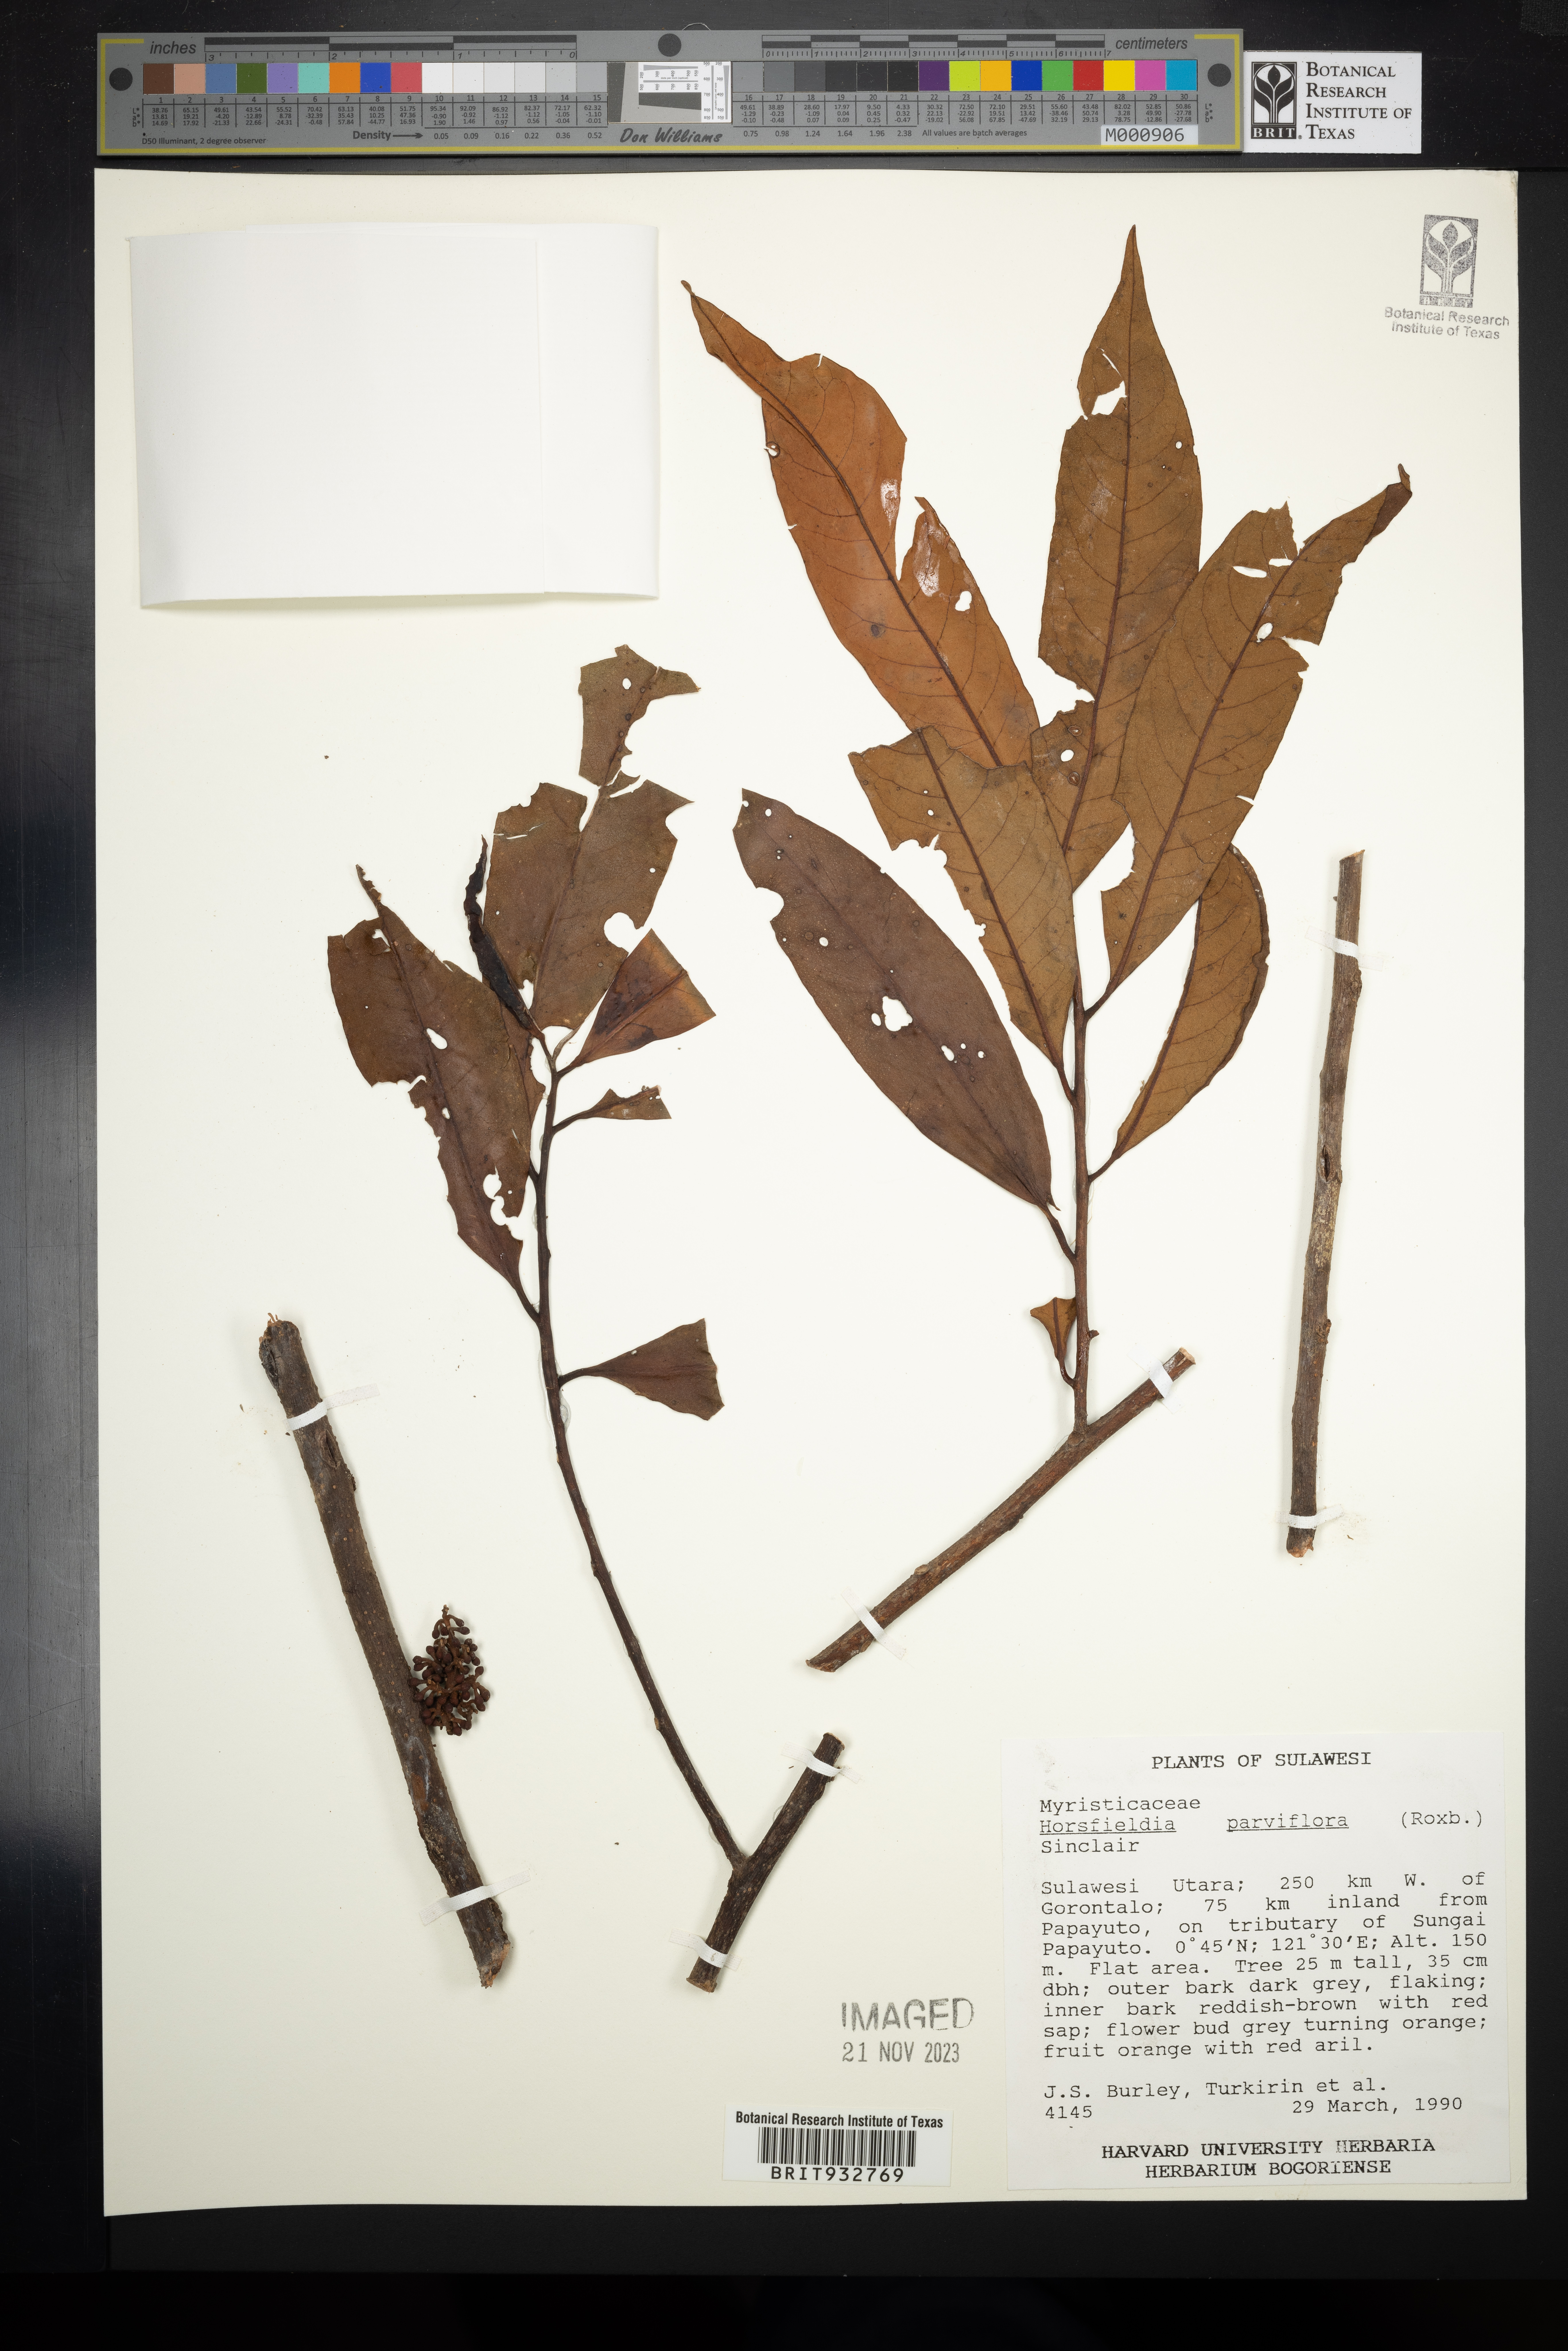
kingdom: Plantae
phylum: Tracheophyta
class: Magnoliopsida
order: Magnoliales
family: Myristicaceae
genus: Horsfieldia
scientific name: Horsfieldia
